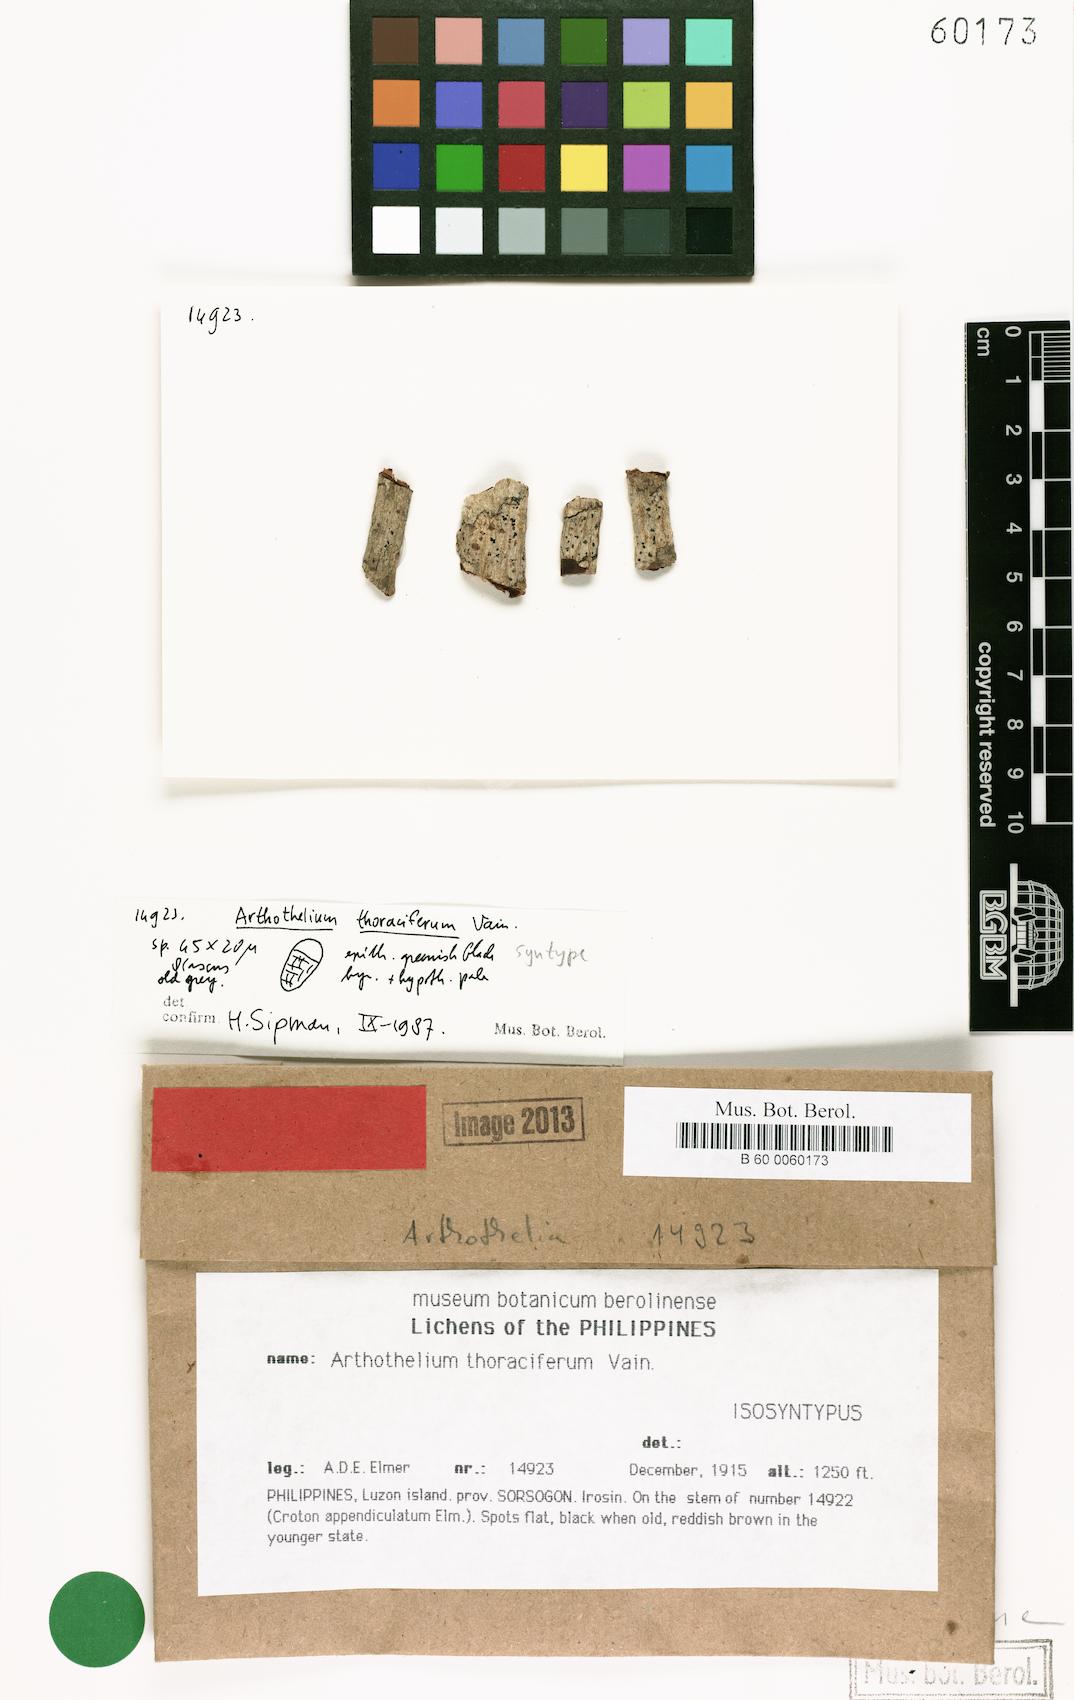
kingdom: Fungi
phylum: Ascomycota
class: Arthoniomycetes
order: Arthoniales
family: Arthoniaceae
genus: Arthothelium
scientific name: Arthothelium
